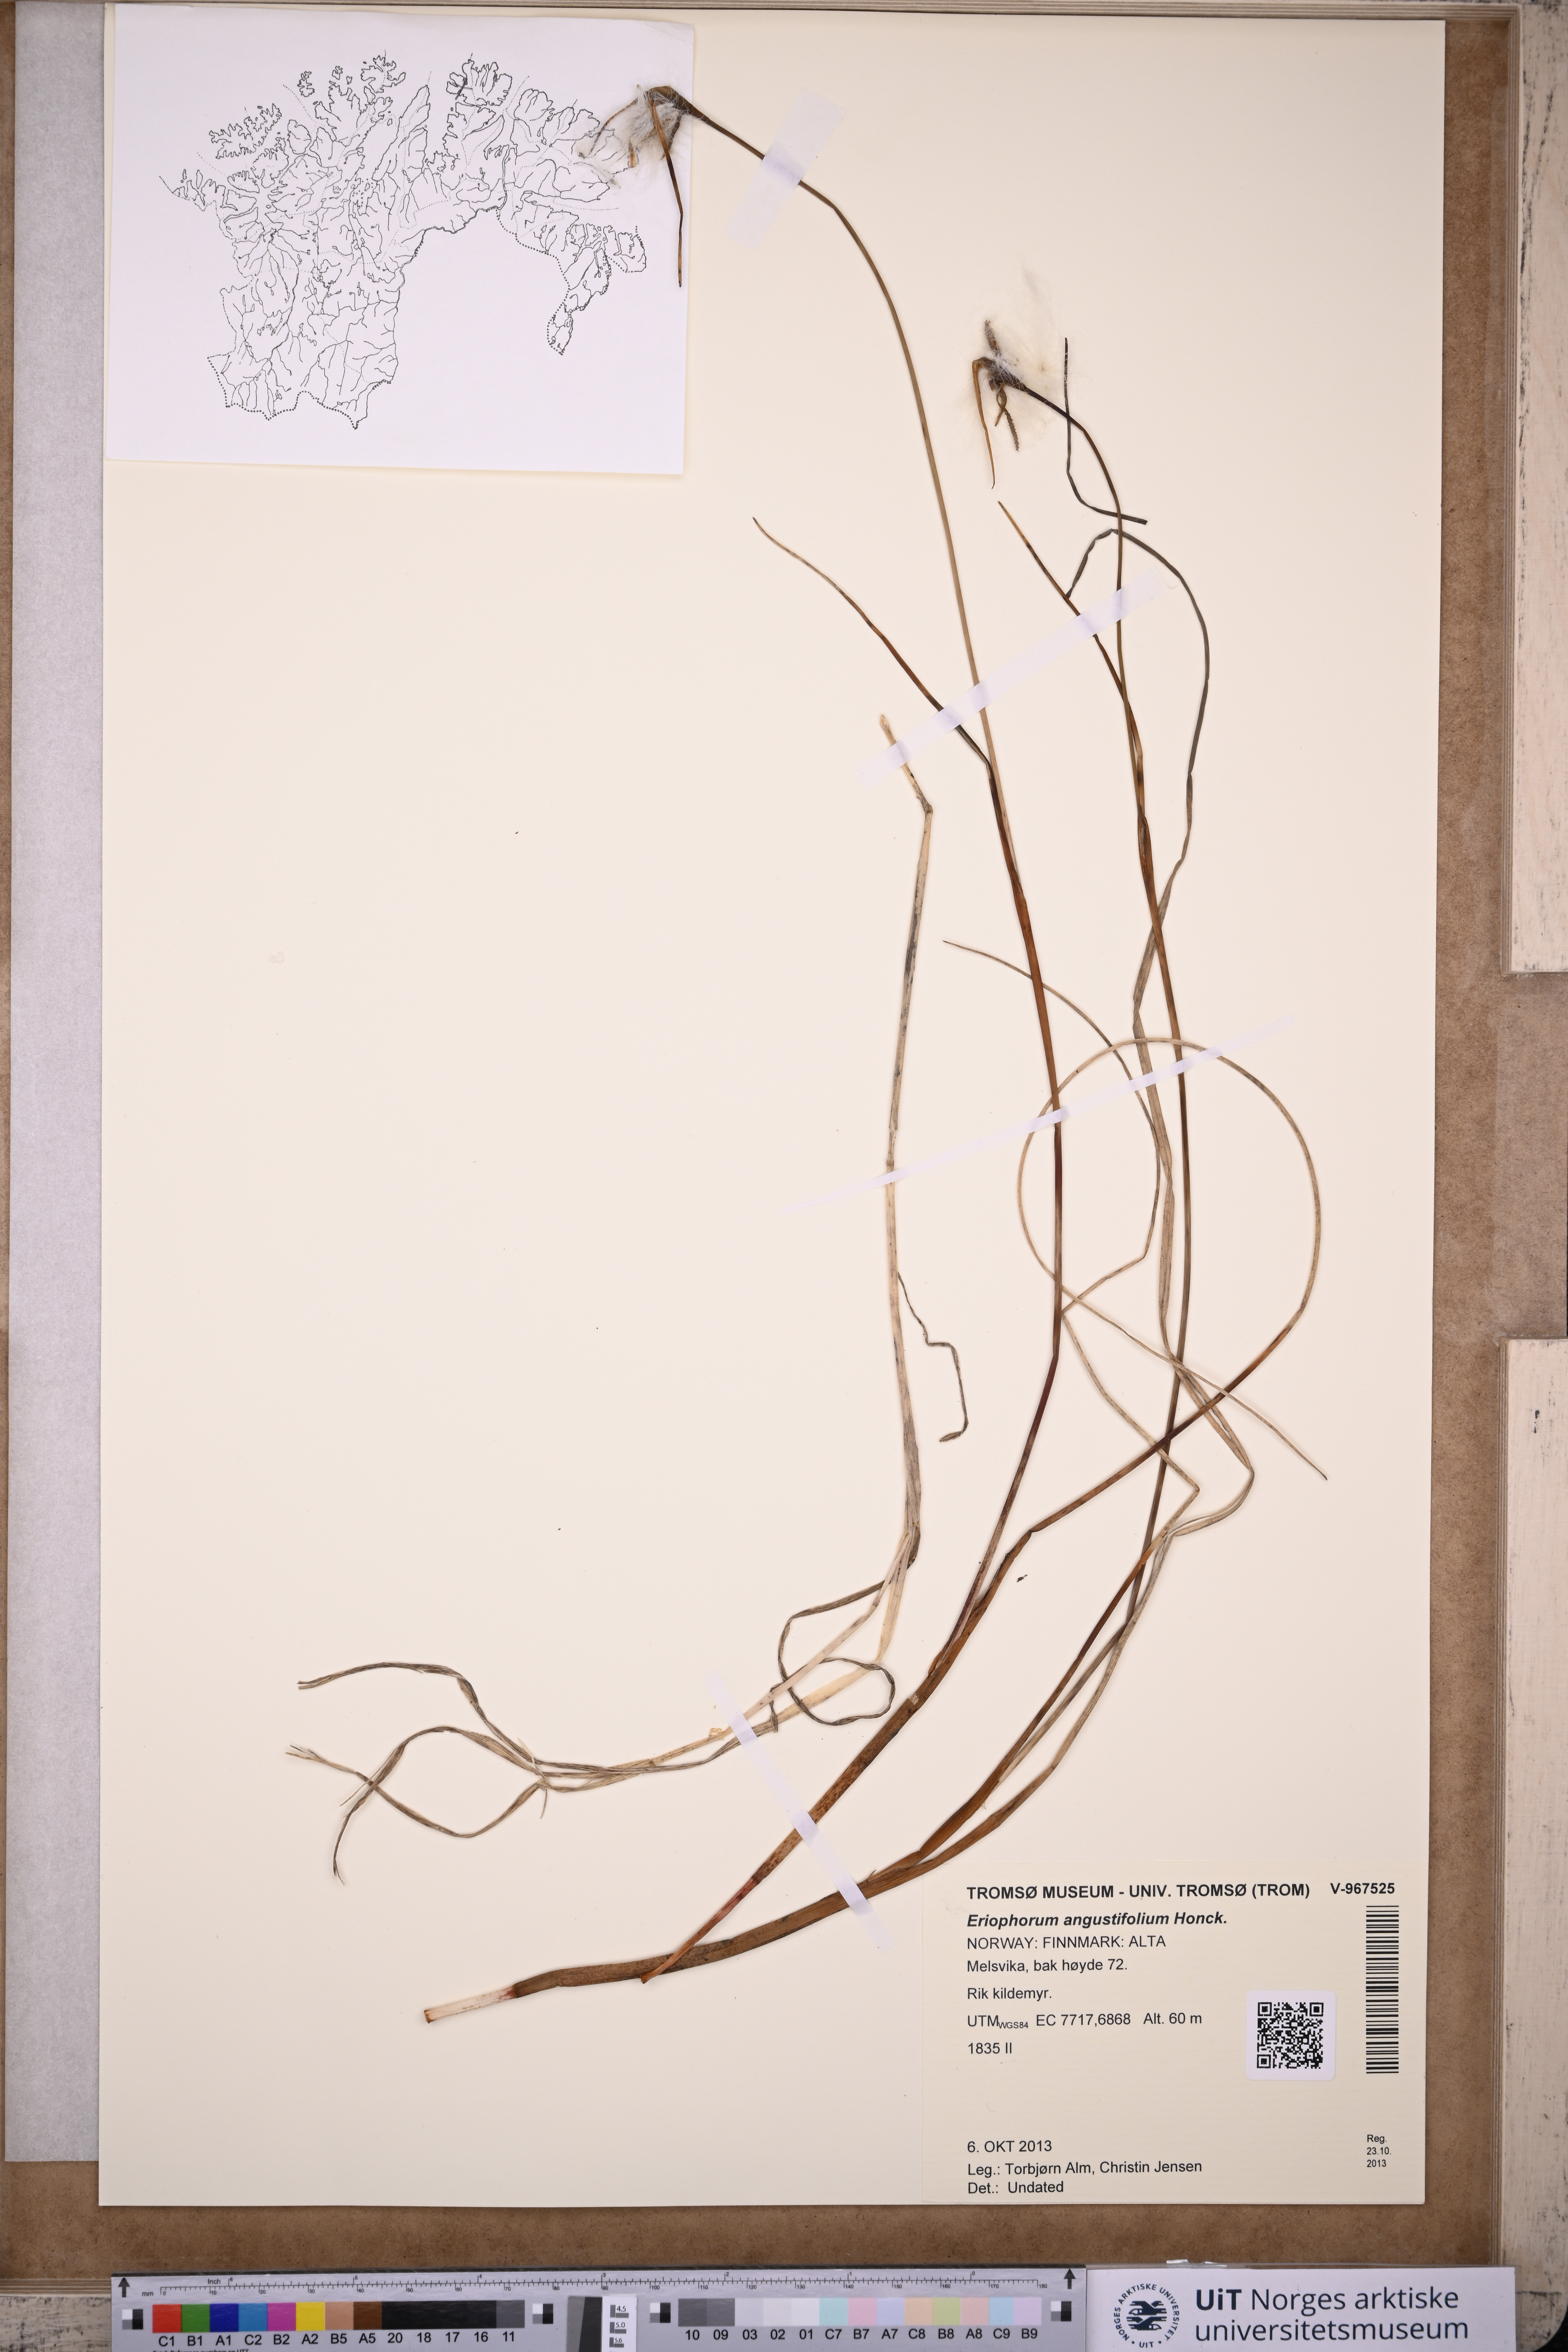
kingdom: Plantae
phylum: Tracheophyta
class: Liliopsida
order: Poales
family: Cyperaceae
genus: Eriophorum
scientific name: Eriophorum angustifolium
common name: Common cottongrass
